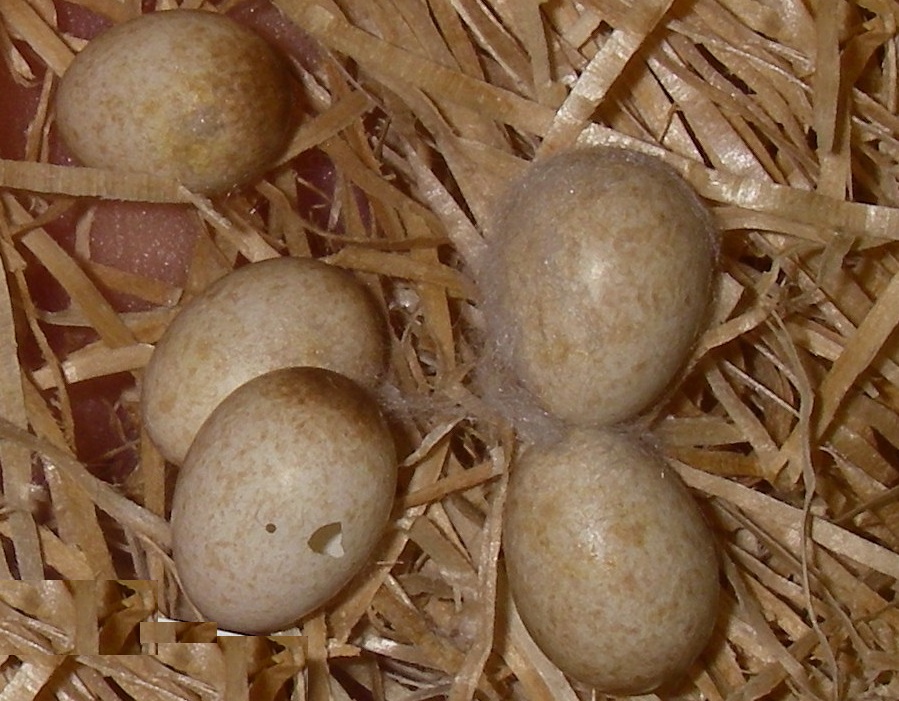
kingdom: Animalia
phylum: Chordata
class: Aves
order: Passeriformes
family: Muscicapidae
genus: Erithacus
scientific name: Erithacus rubecula
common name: European robin
